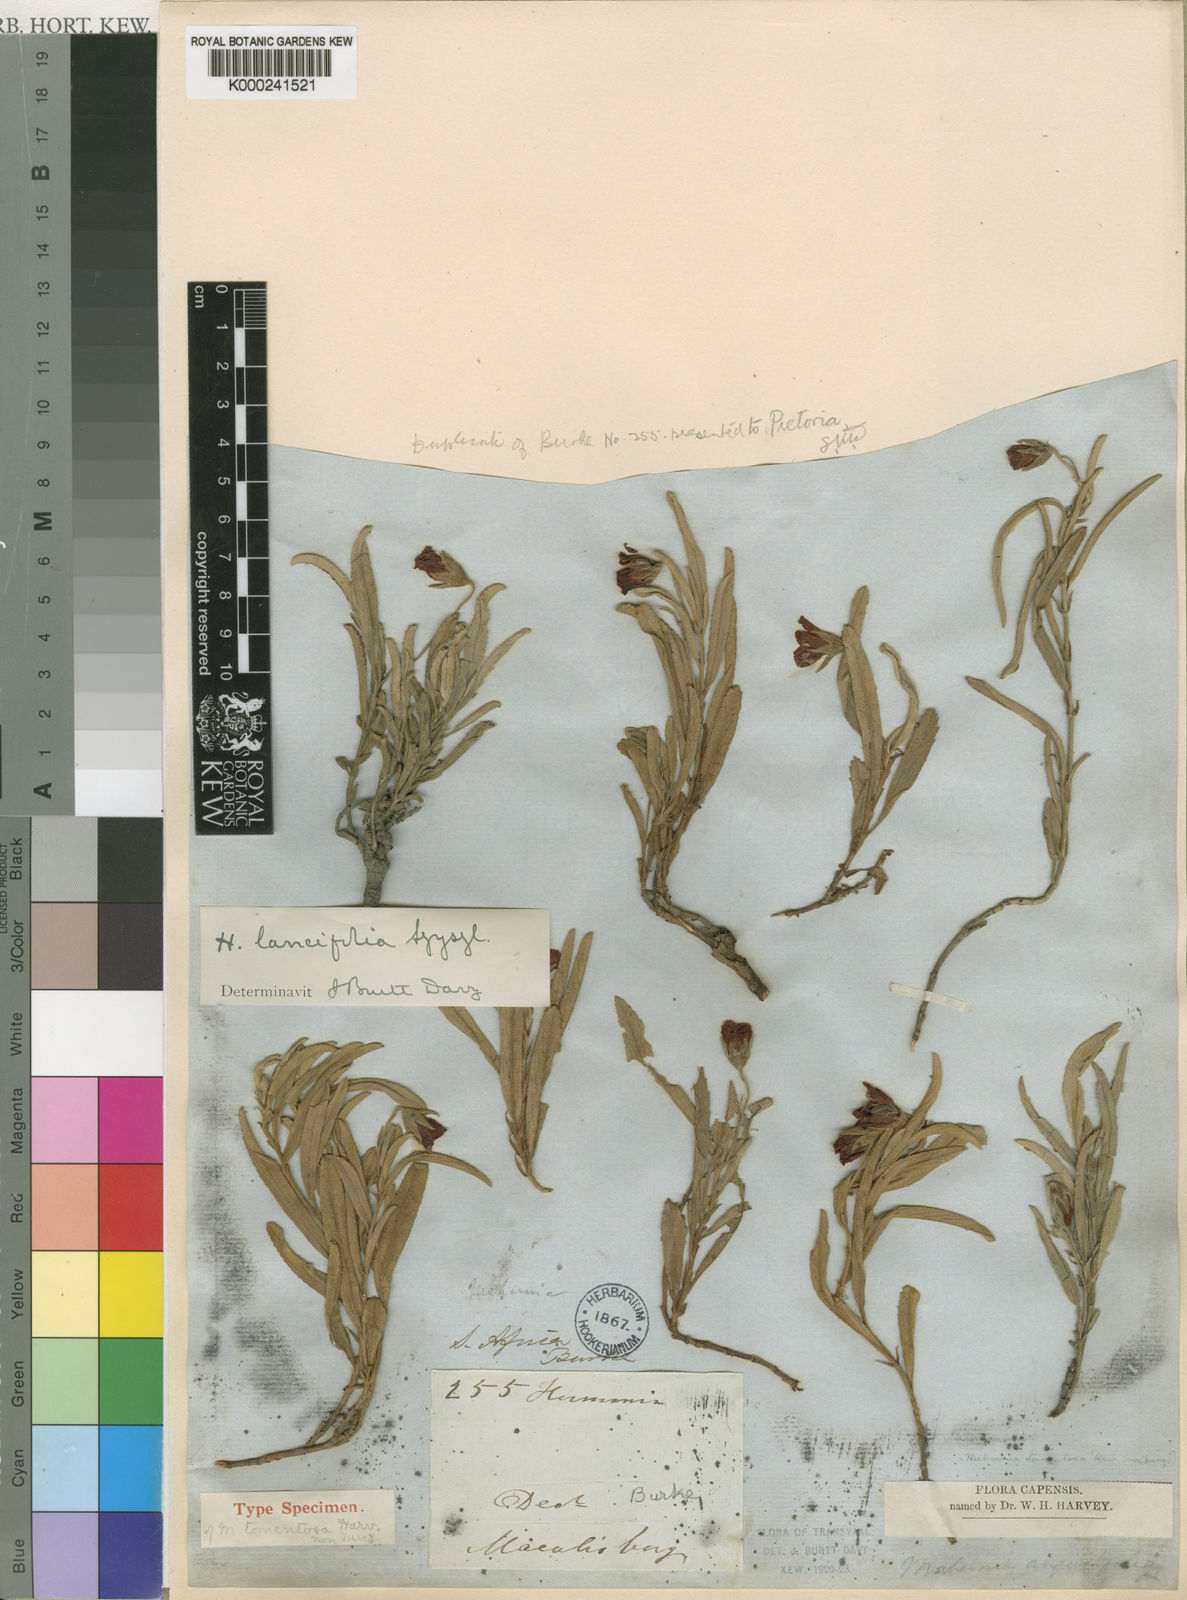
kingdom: Plantae
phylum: Tracheophyta
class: Magnoliopsida
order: Malvales
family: Malvaceae
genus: Hermannia
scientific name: Hermannia lancifolia
